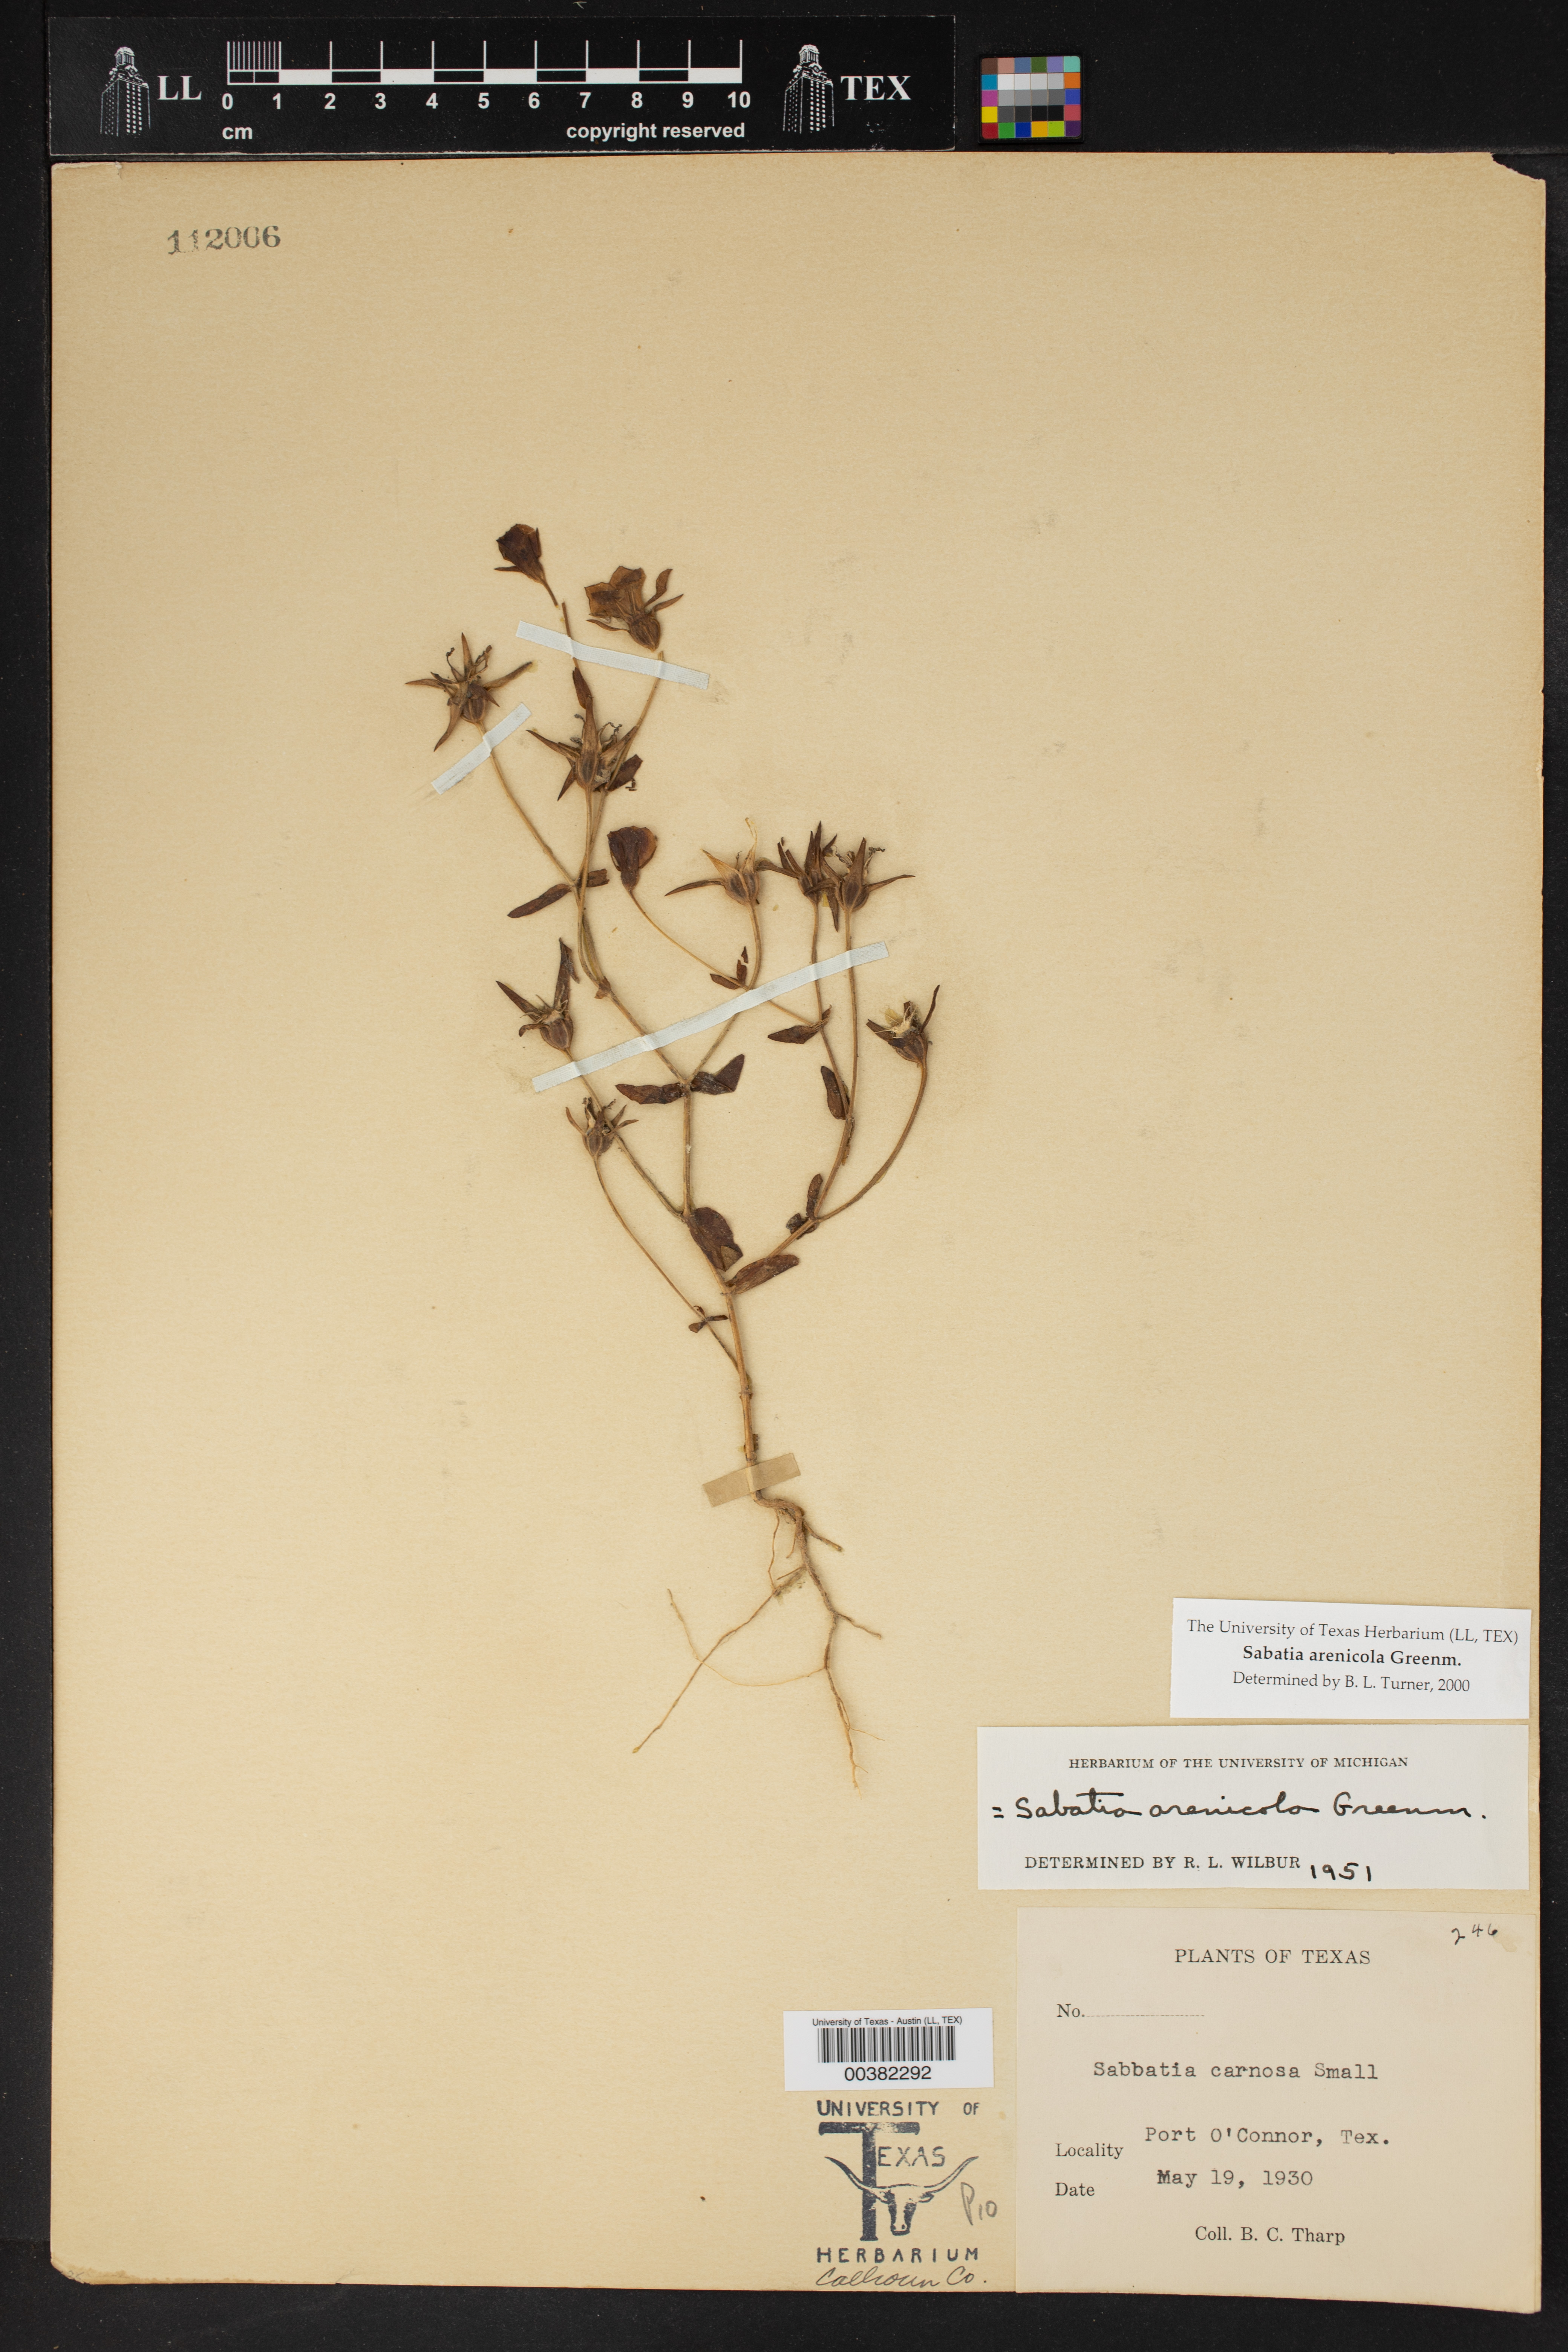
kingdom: Plantae
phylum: Tracheophyta
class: Magnoliopsida
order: Gentianales
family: Gentianaceae
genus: Sabatia
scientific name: Sabatia arenicola
